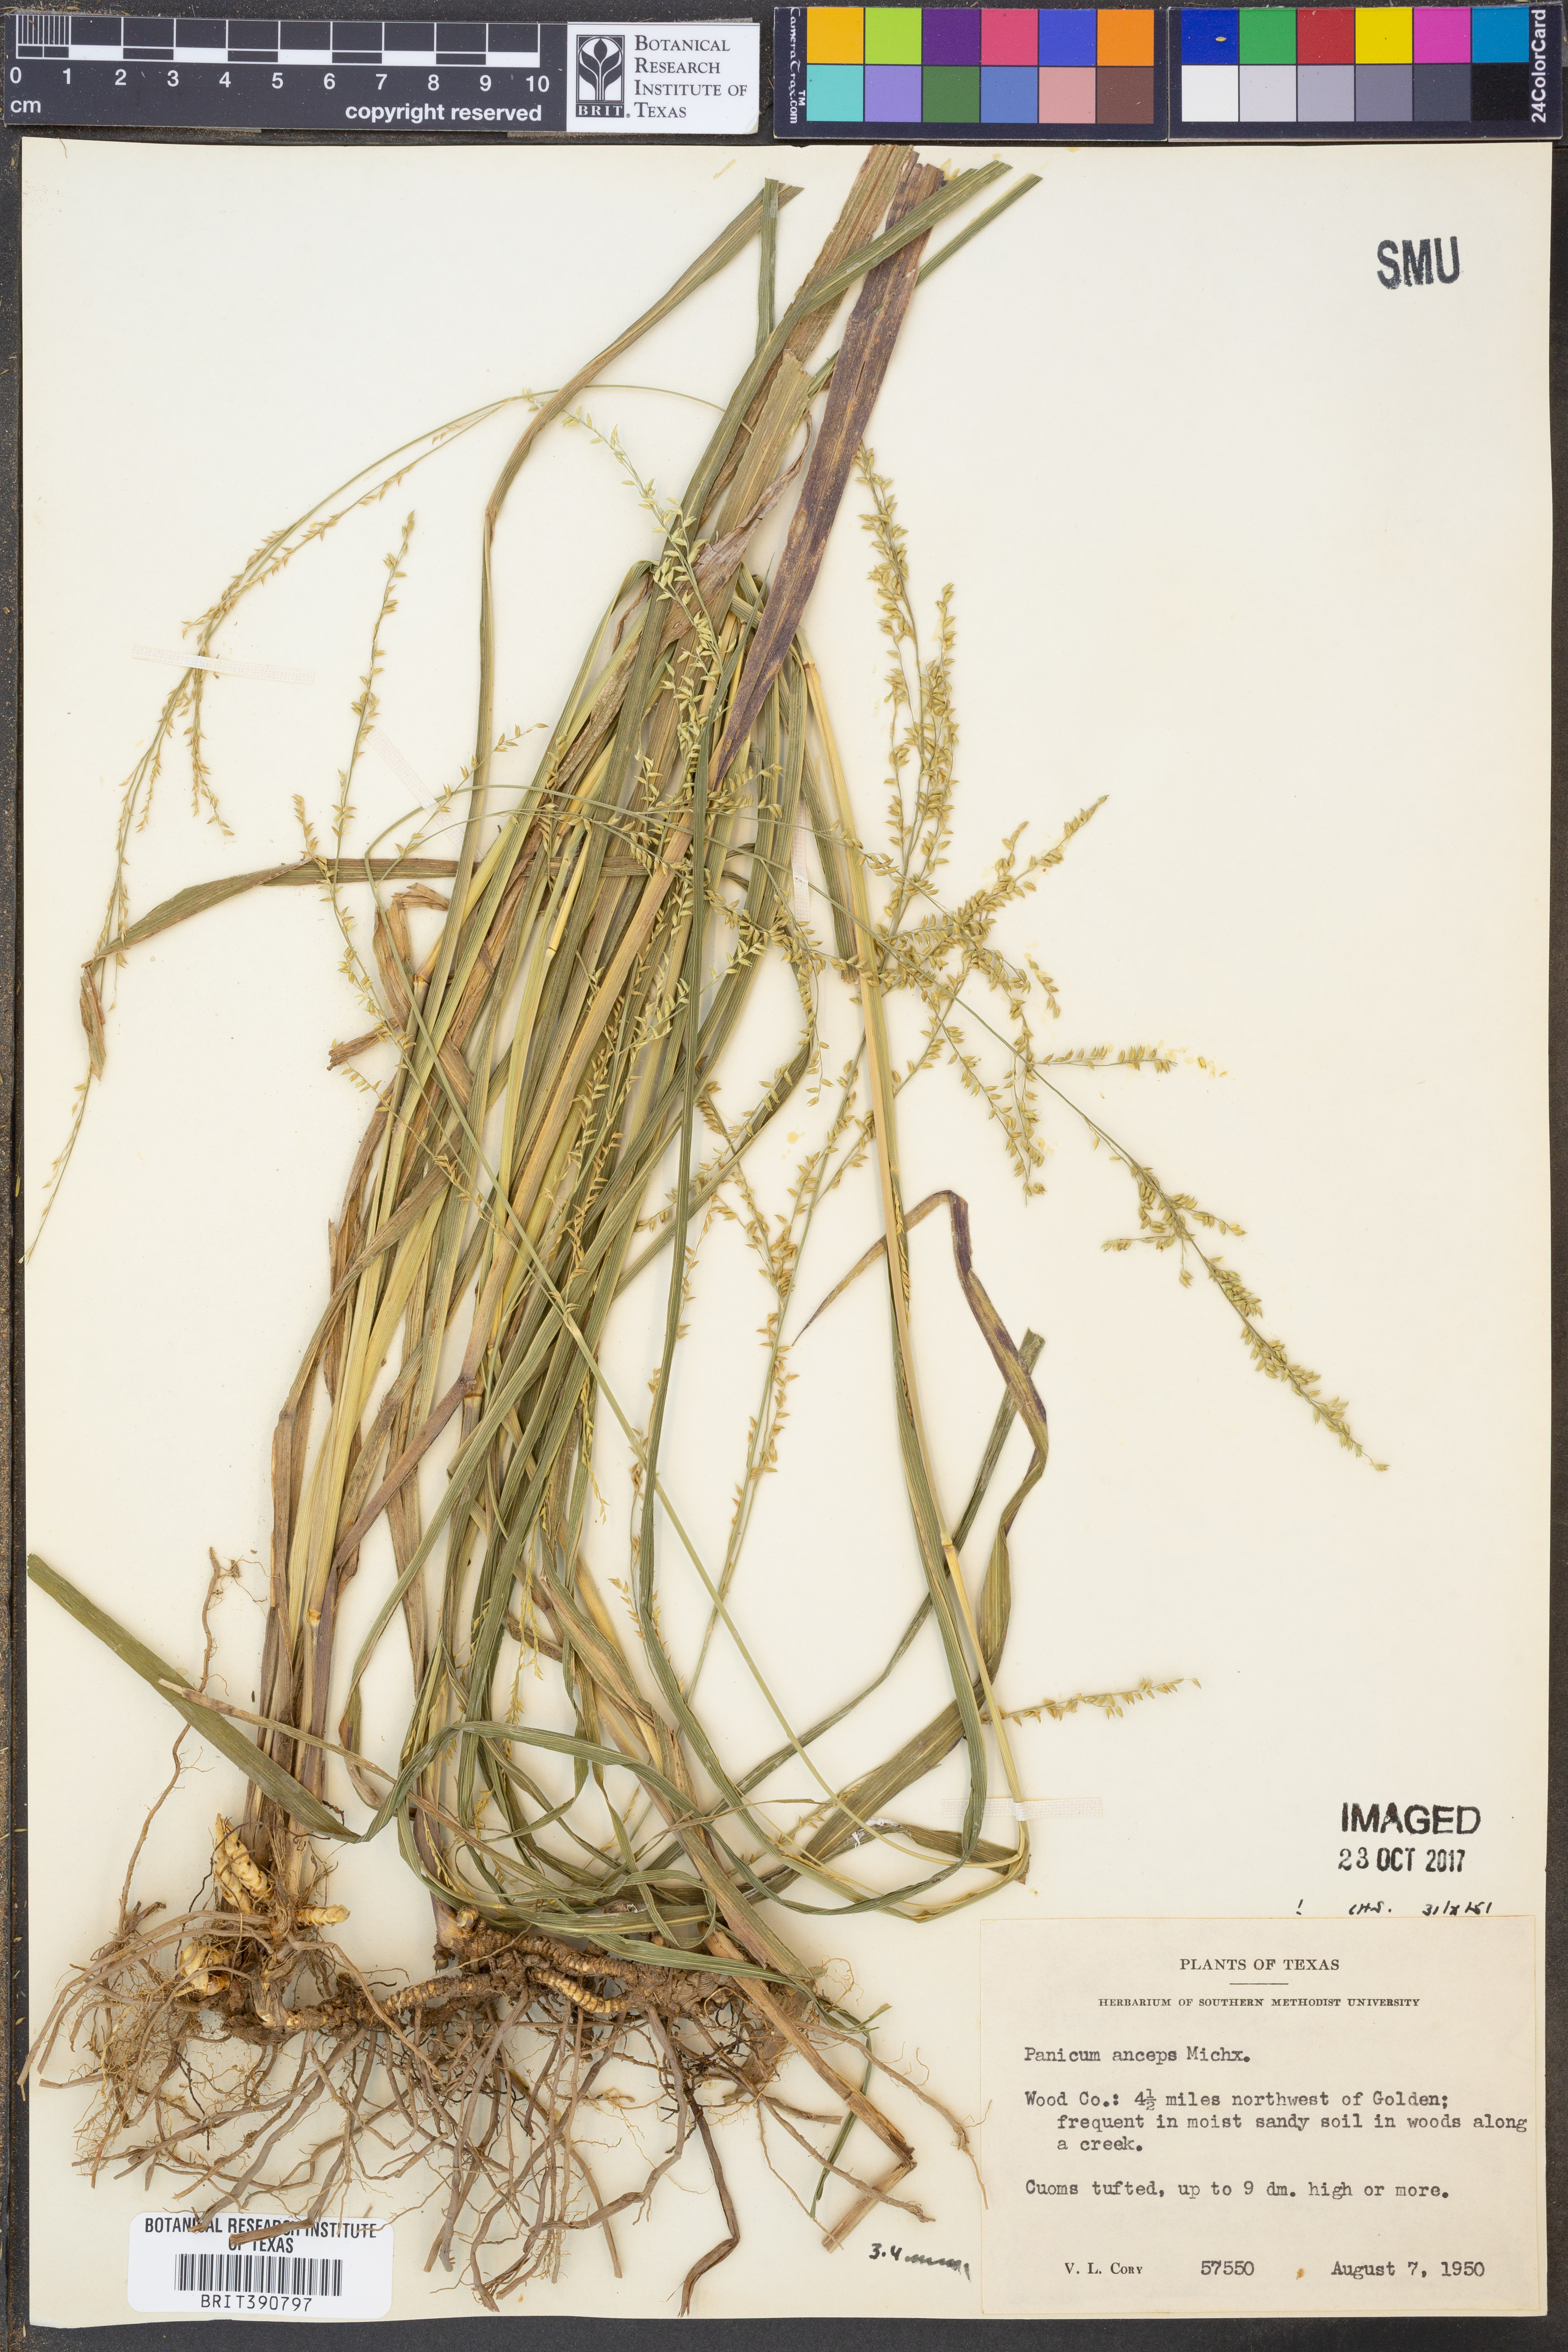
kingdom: Plantae
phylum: Tracheophyta
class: Liliopsida
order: Poales
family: Poaceae
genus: Coleataenia
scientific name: Coleataenia anceps
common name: Beaked panic grass
